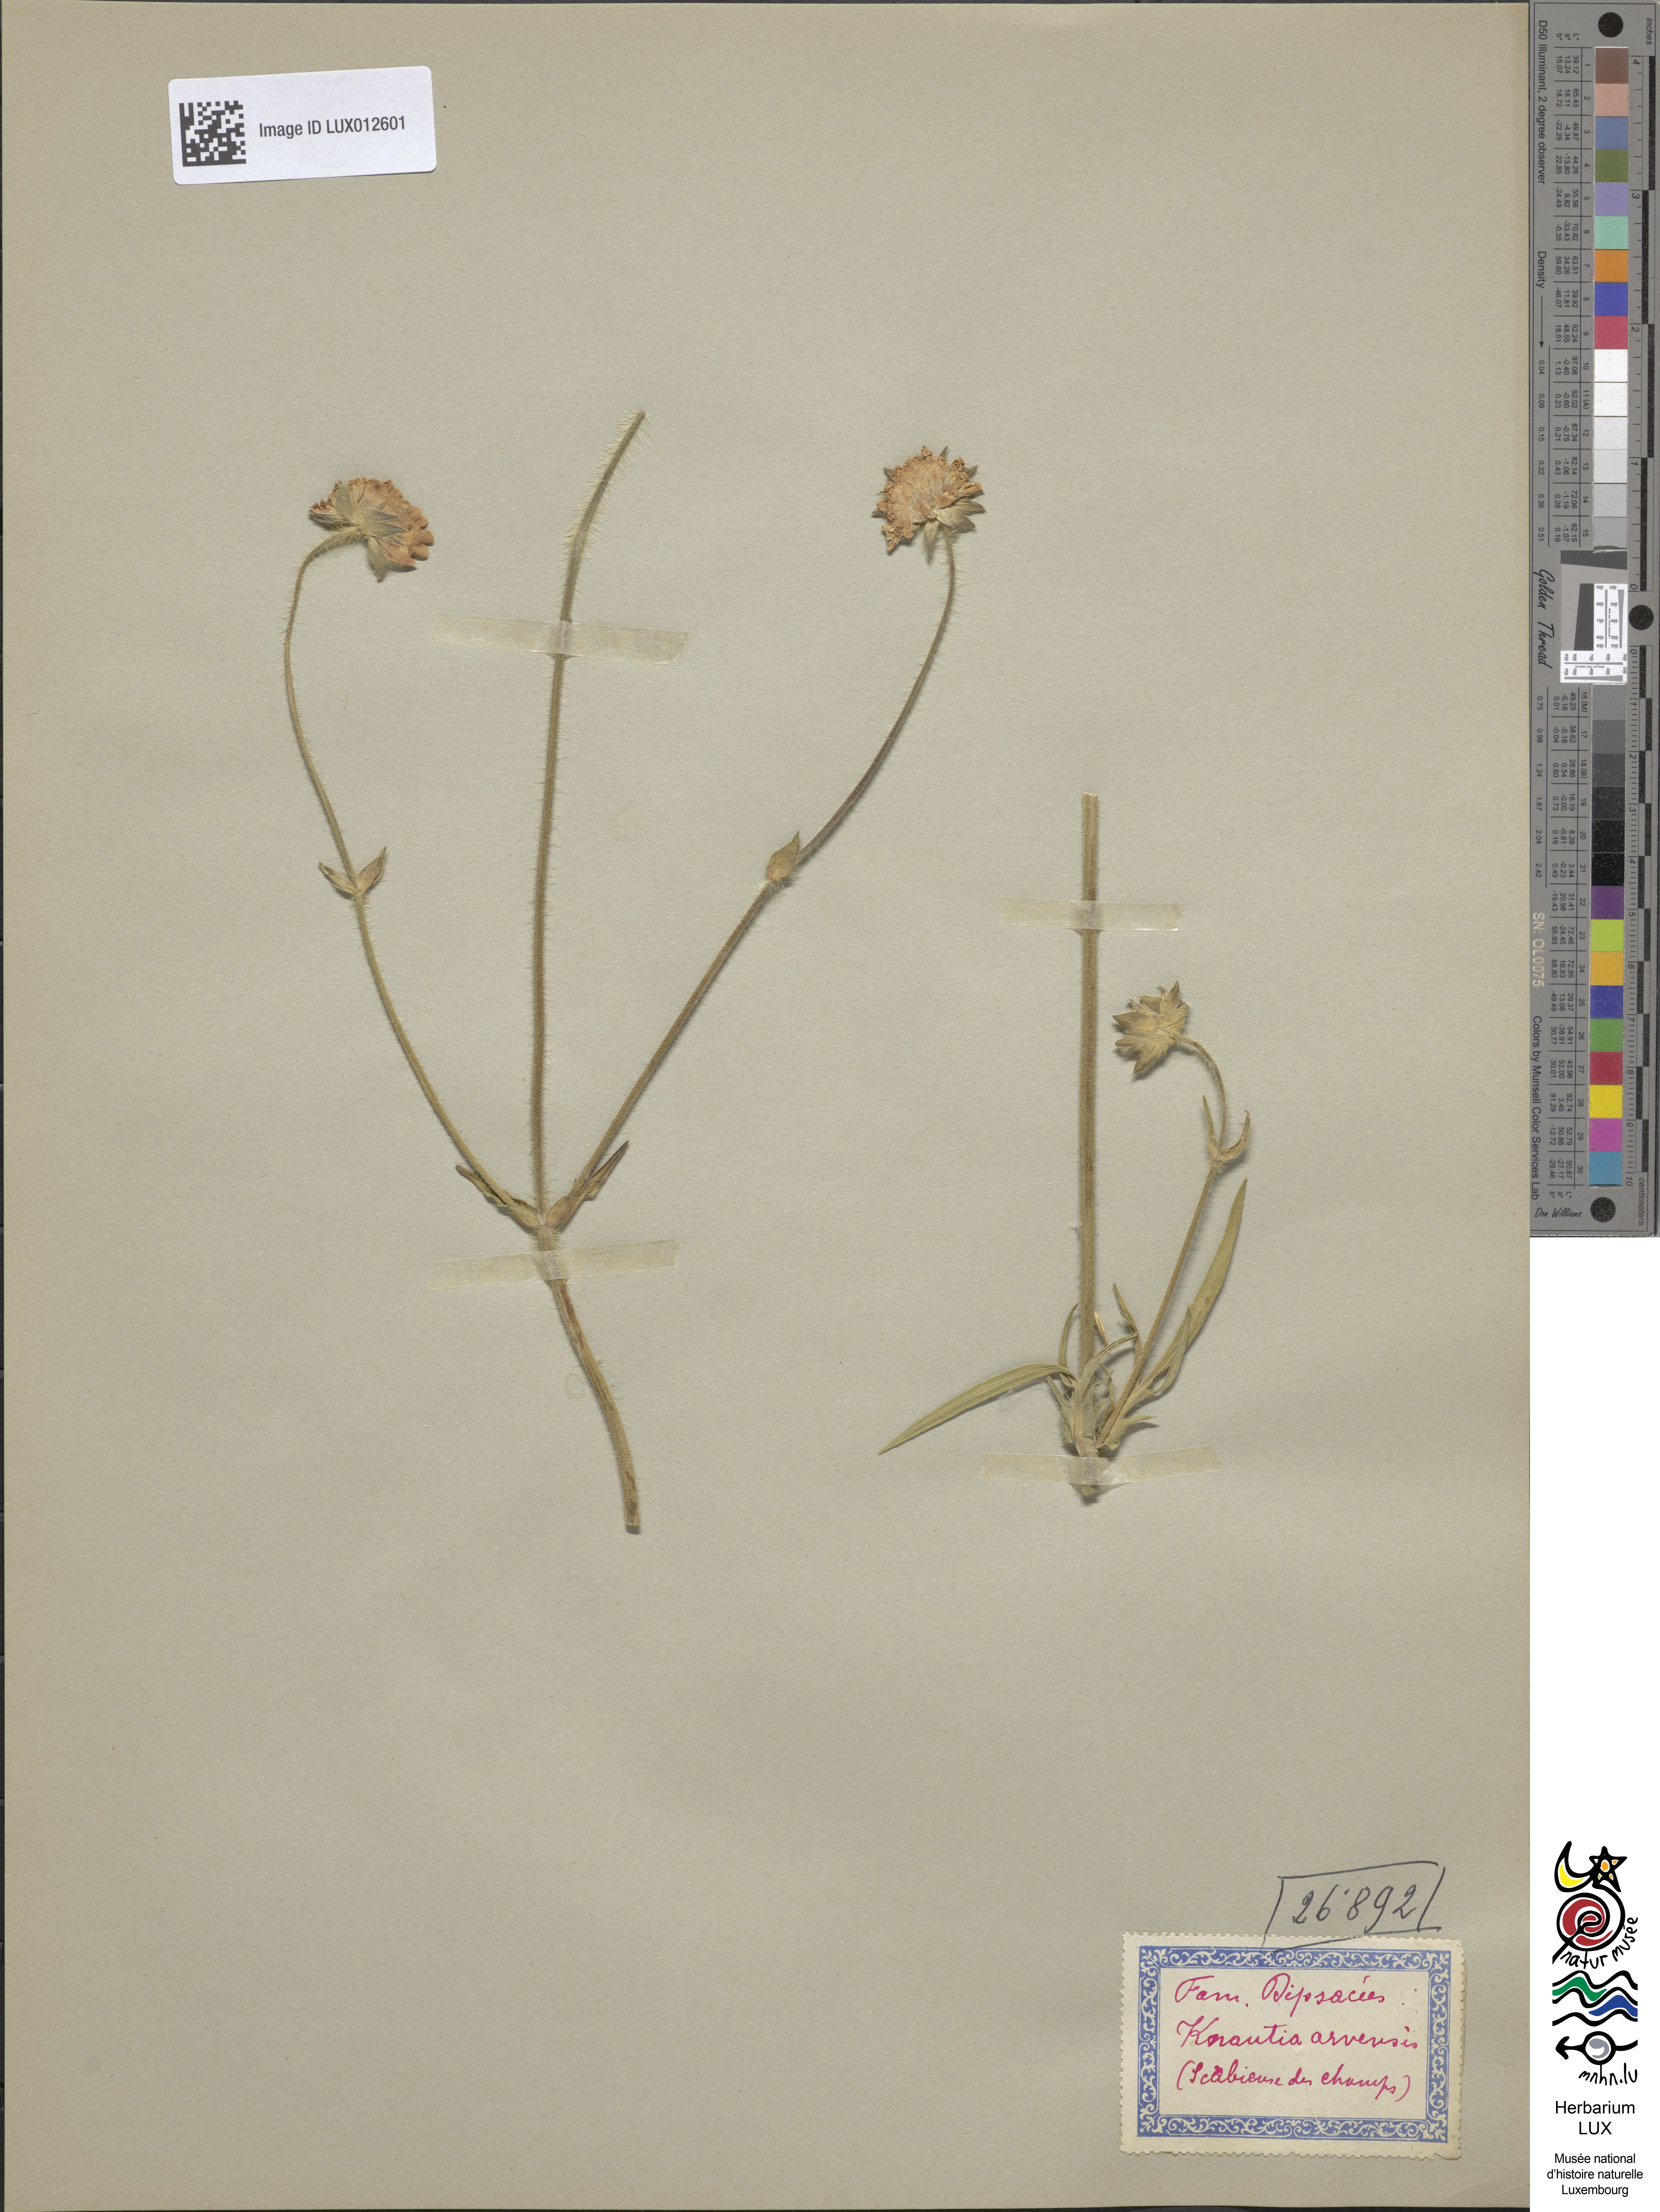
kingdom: Plantae
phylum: Tracheophyta
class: Magnoliopsida
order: Dipsacales
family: Caprifoliaceae
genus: Knautia
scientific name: Knautia arvensis
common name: Field scabiosa
